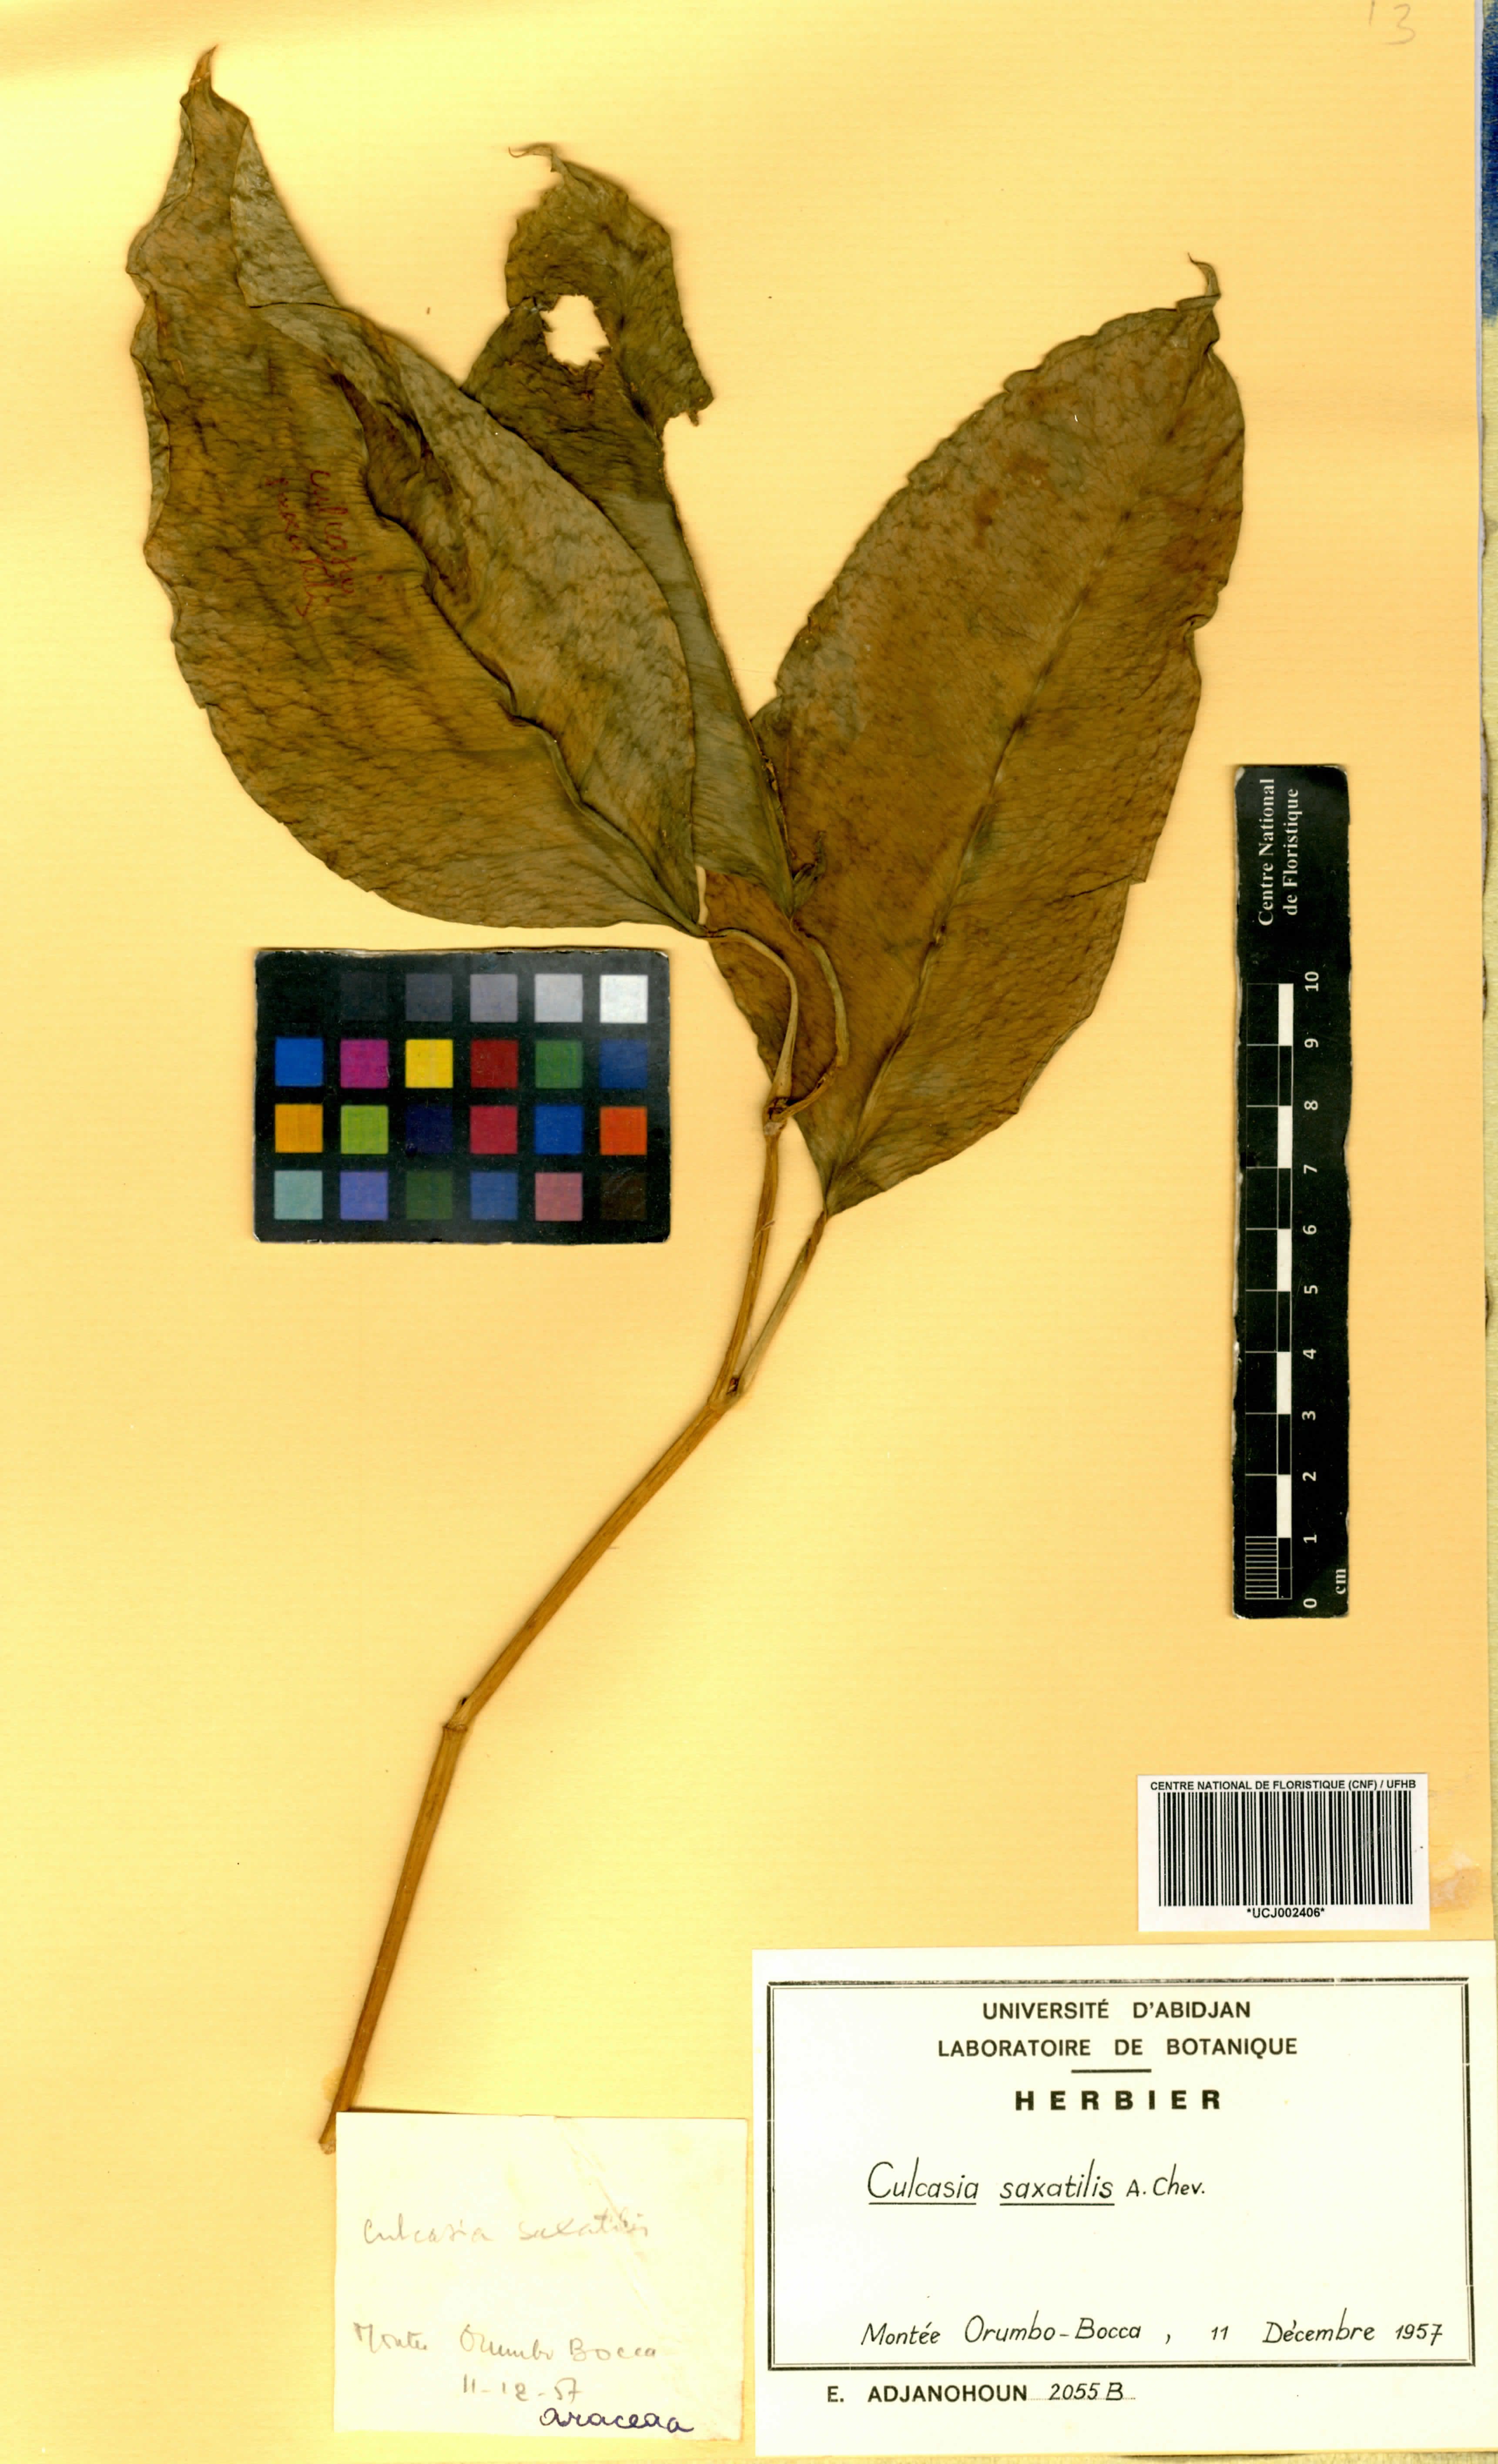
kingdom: Plantae
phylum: Tracheophyta
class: Liliopsida
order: Alismatales
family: Araceae
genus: Culcasia
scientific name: Culcasia scandens
